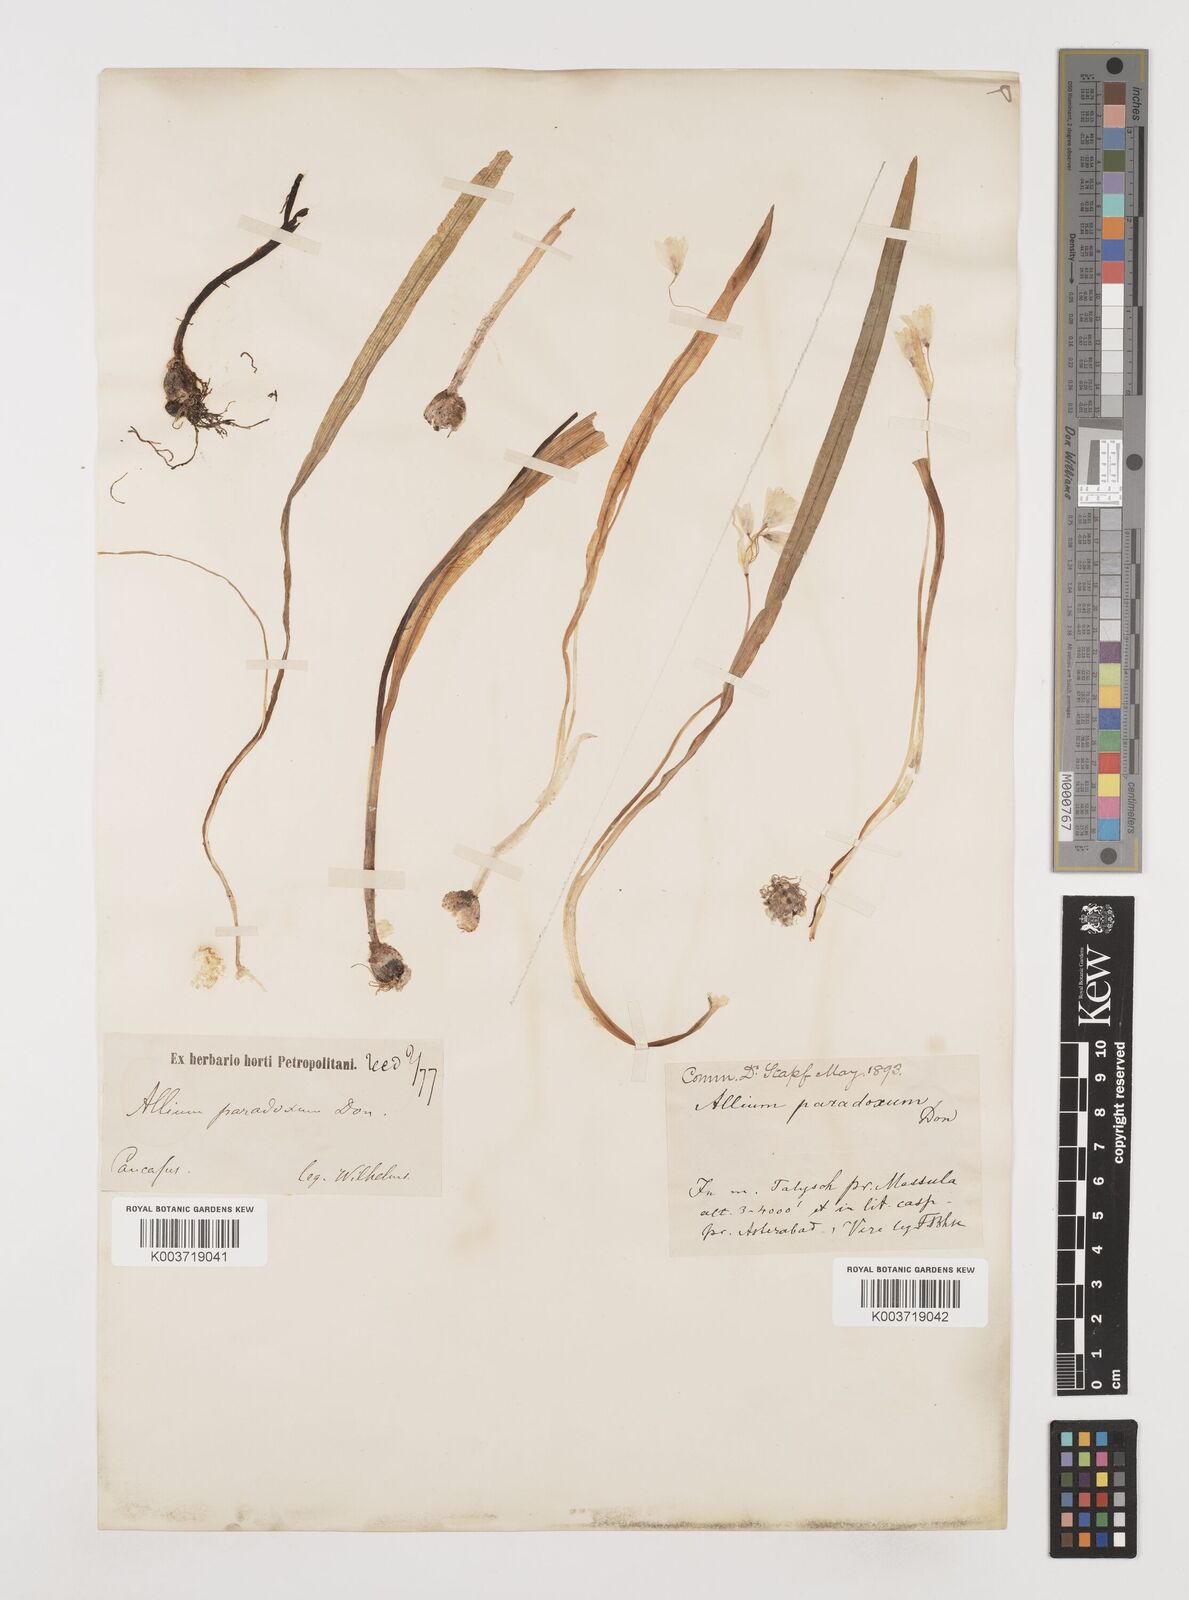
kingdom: Plantae
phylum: Tracheophyta
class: Liliopsida
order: Asparagales
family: Amaryllidaceae
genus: Allium
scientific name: Allium paradoxum
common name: Few-flowered garlic
